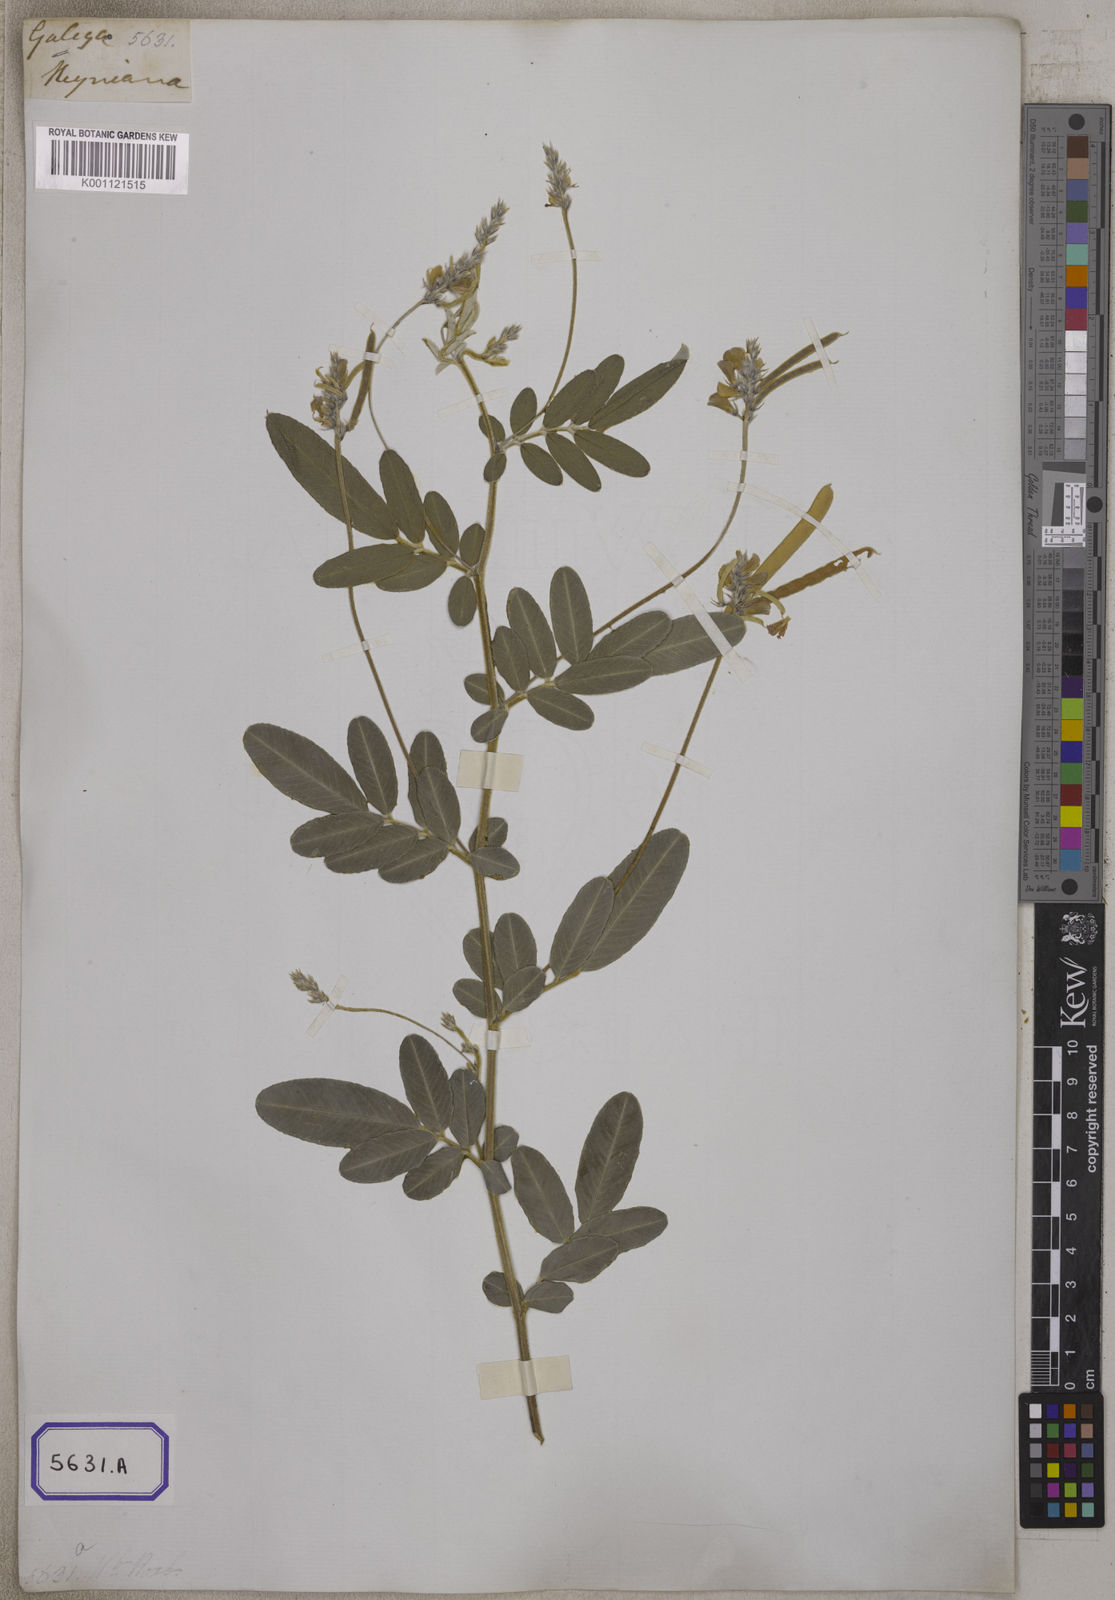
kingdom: Plantae
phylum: Tracheophyta
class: Magnoliopsida
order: Fabales
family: Fabaceae
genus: Tephrosia
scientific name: Tephrosia
